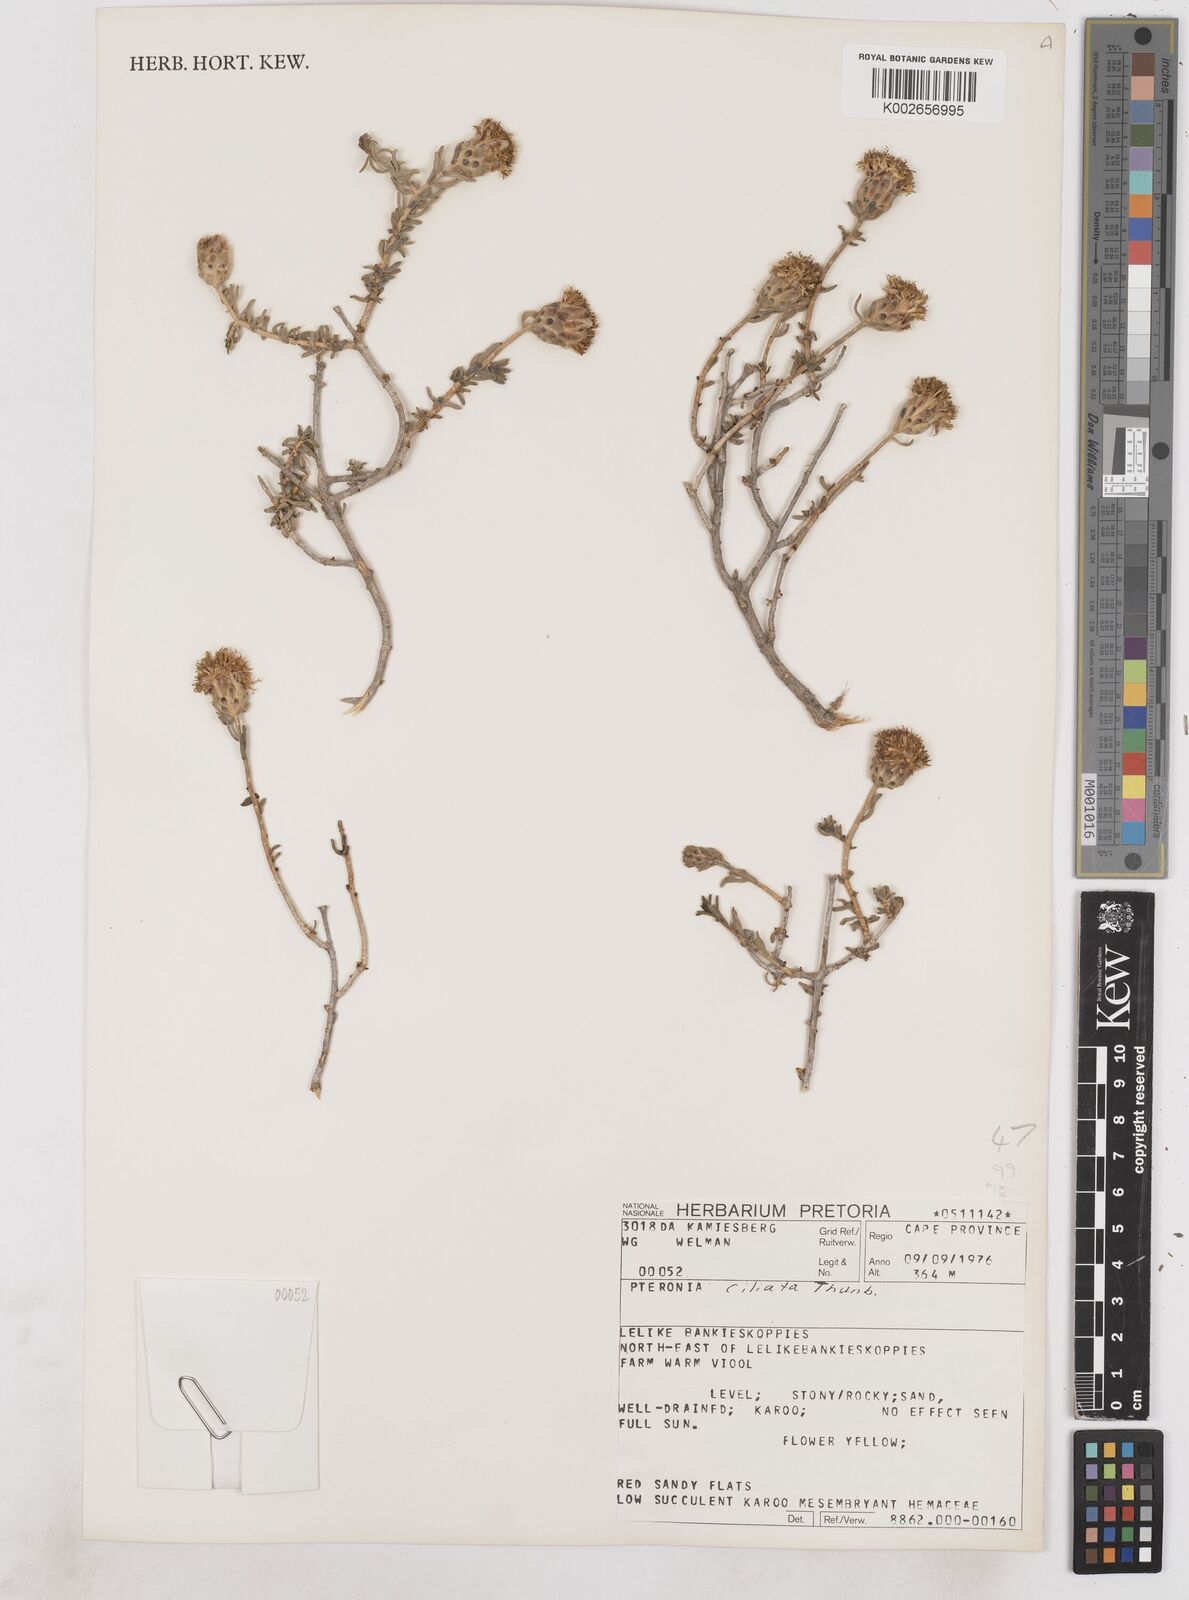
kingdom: Plantae
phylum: Tracheophyta
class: Magnoliopsida
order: Asterales
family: Asteraceae
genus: Pteronia
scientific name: Pteronia ciliata
